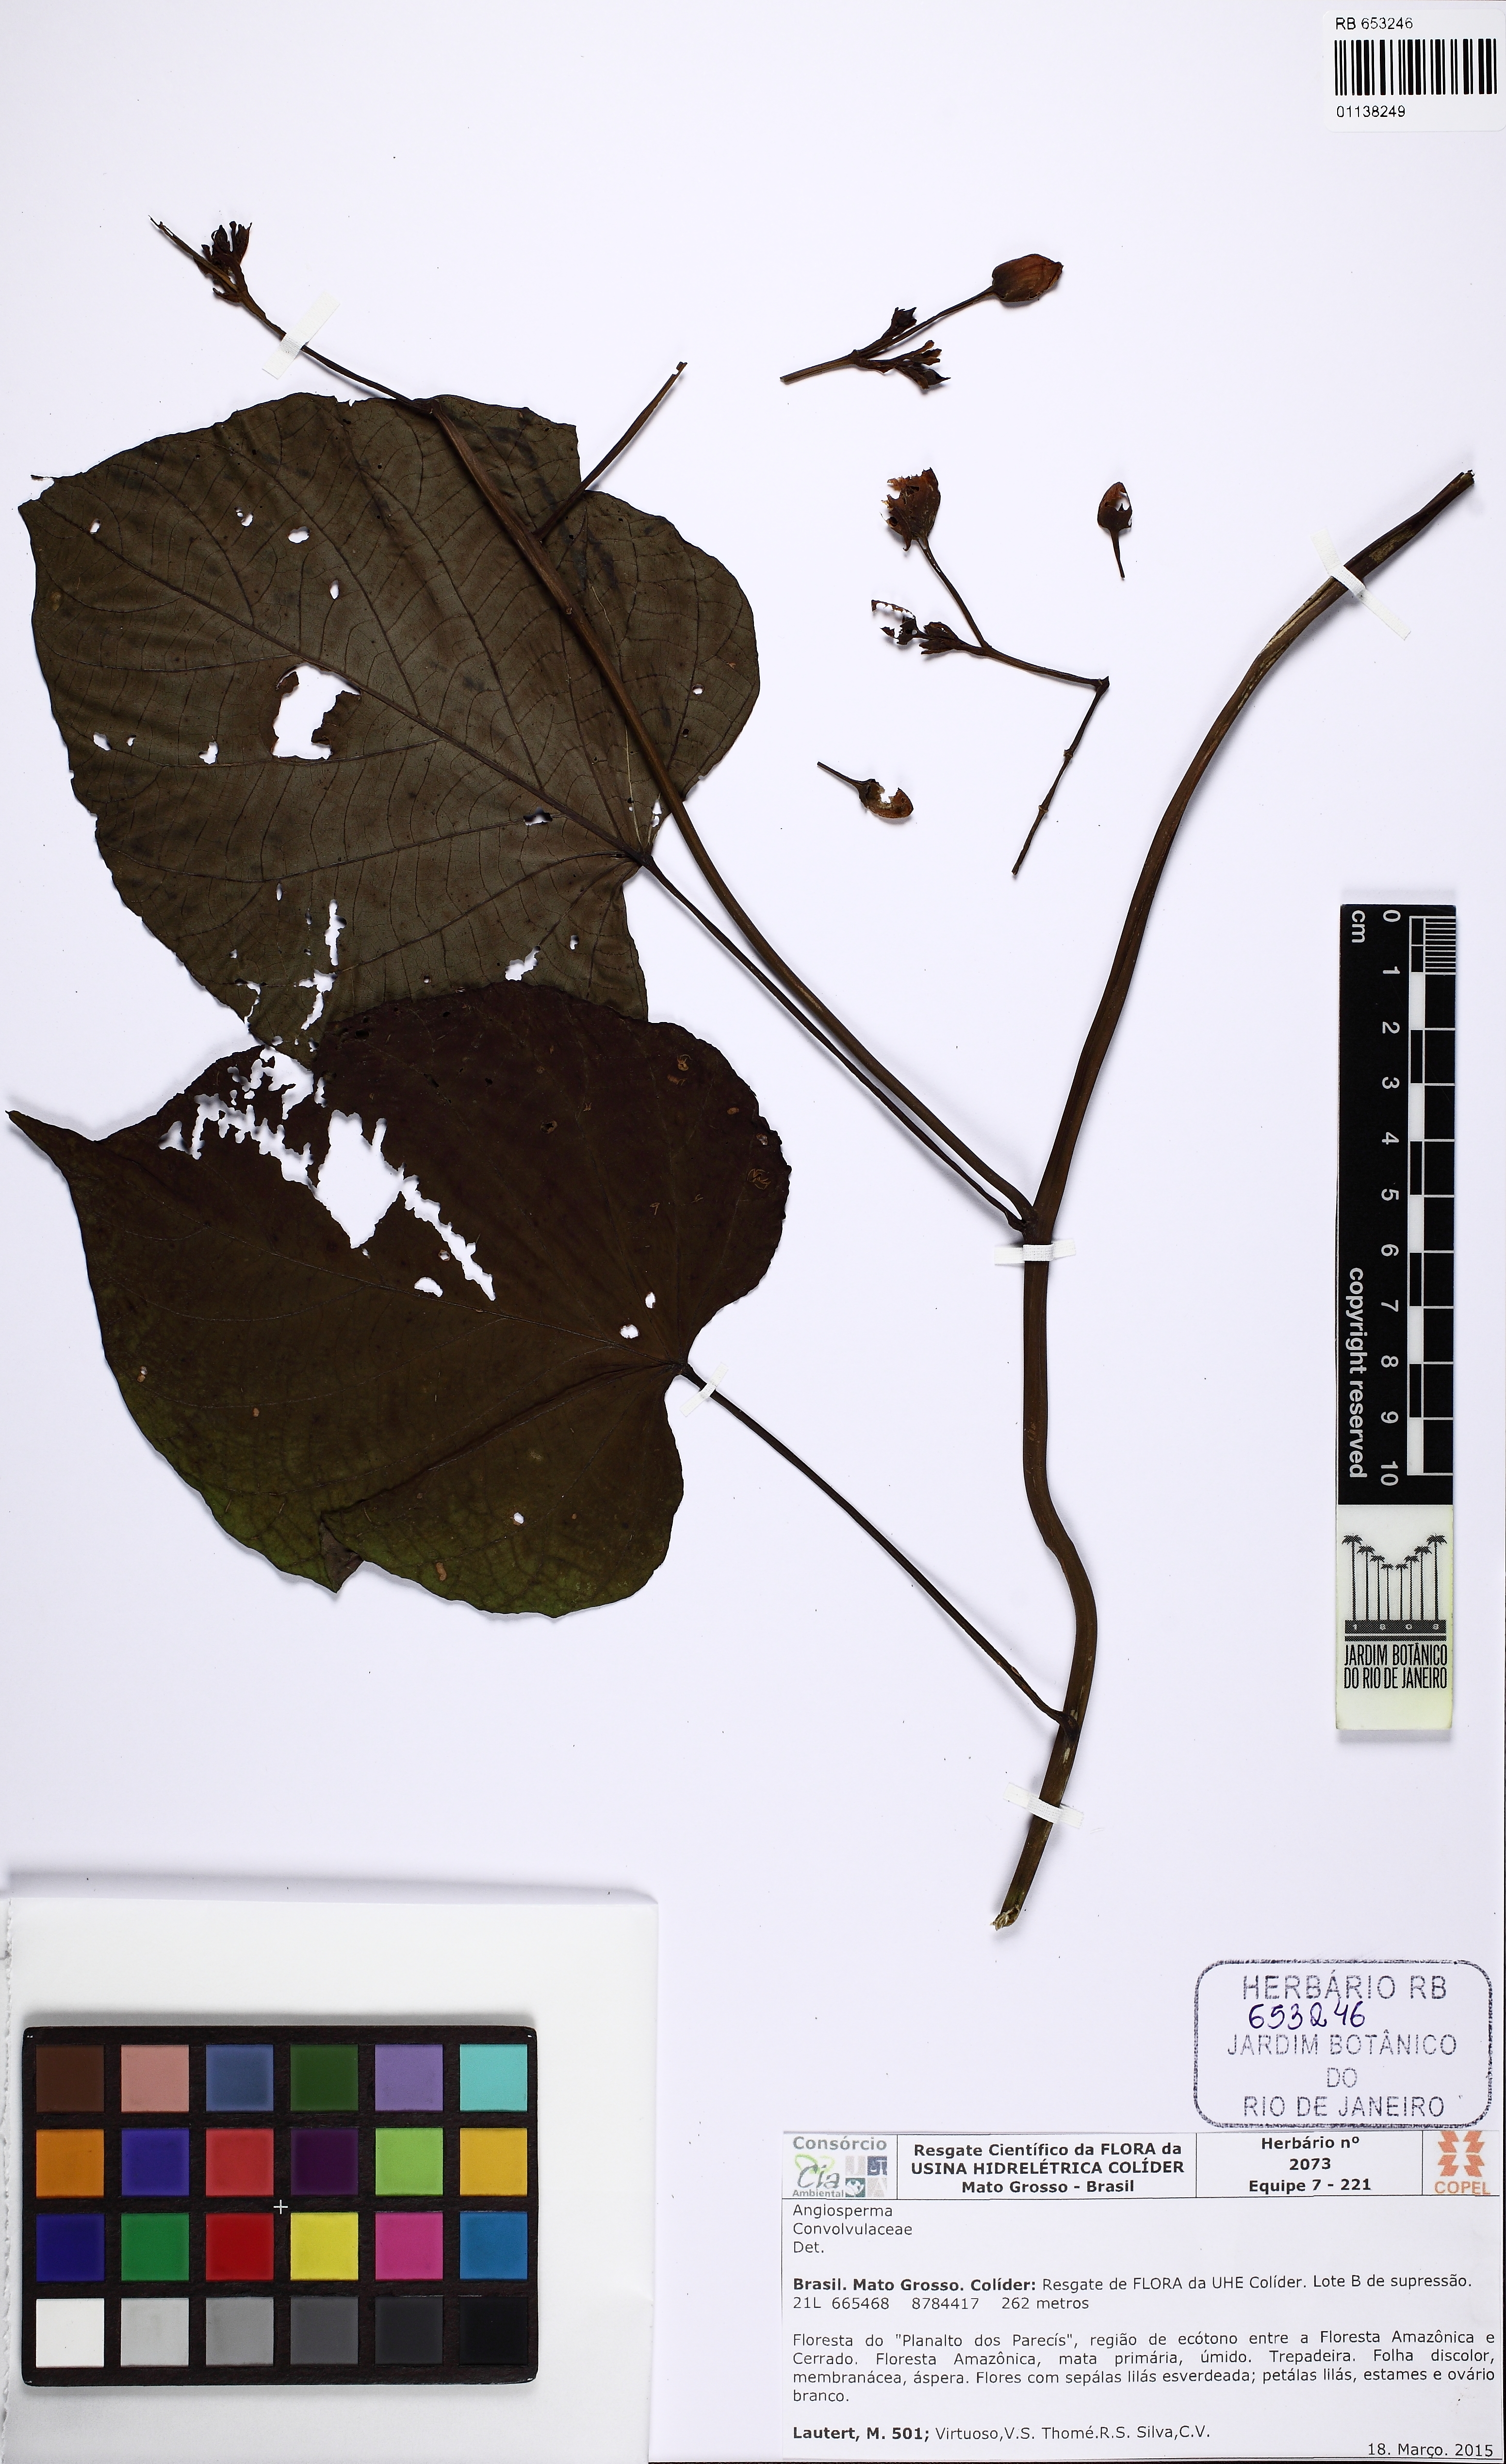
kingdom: Plantae
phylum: Tracheophyta
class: Magnoliopsida
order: Solanales
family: Convolvulaceae
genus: Ipomoea
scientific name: Ipomoea philomega
